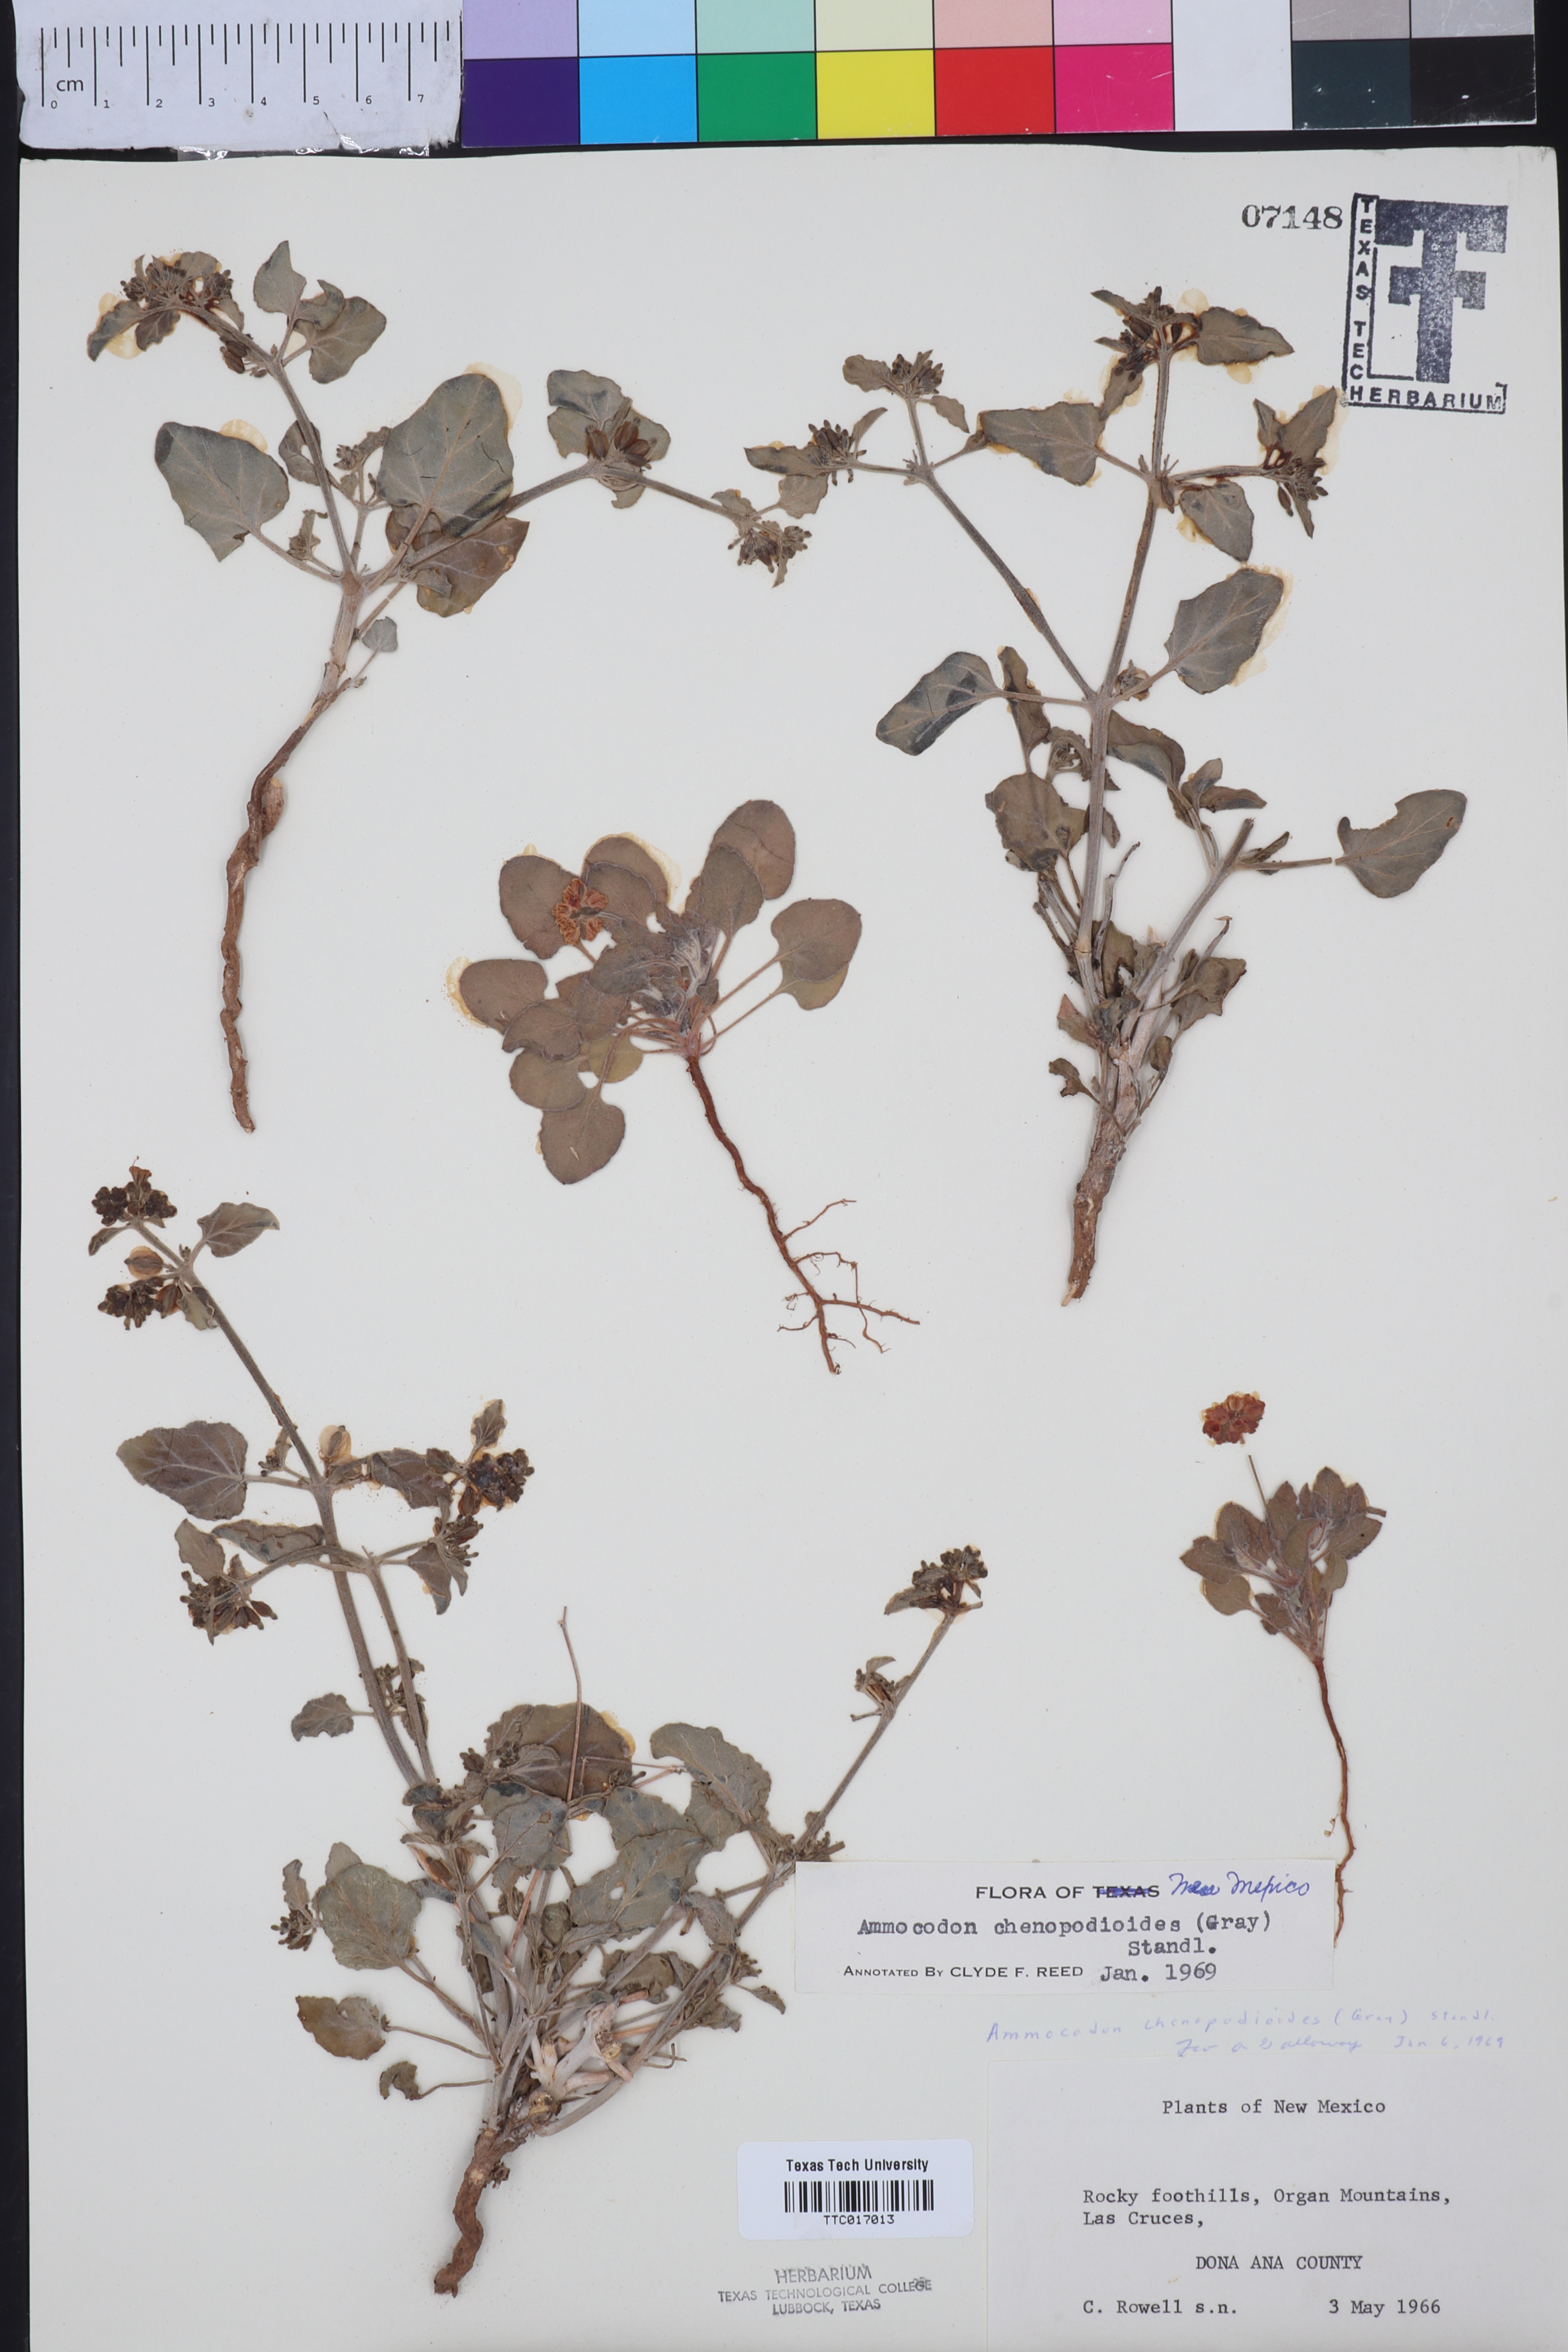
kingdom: Plantae
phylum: Tracheophyta
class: Magnoliopsida
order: Caryophyllales
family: Nyctaginaceae
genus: Acleisanthes
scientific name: Acleisanthes chenopodioides
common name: Goosefoot moonpod
